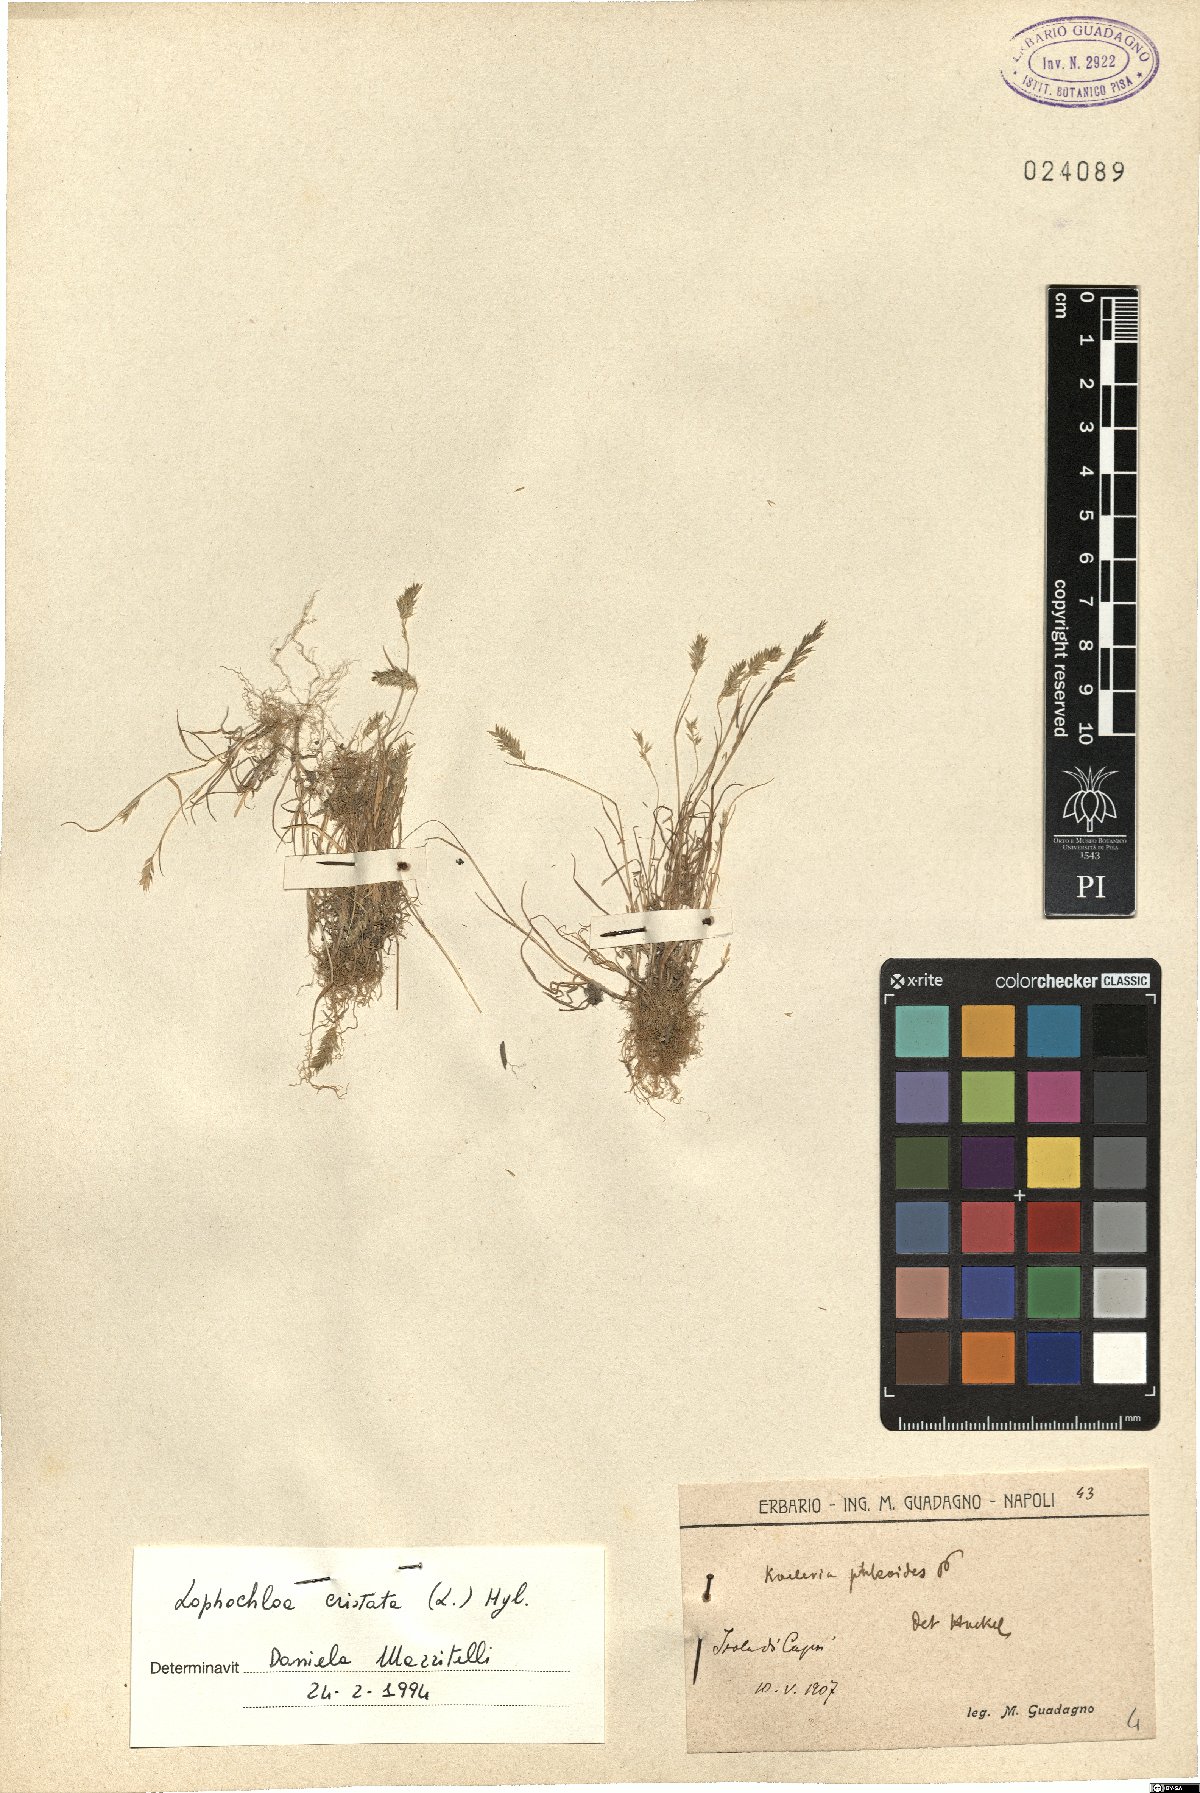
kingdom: Plantae
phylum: Tracheophyta
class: Liliopsida
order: Poales
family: Poaceae
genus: Rostraria
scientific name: Rostraria cristata
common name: Mediterranean hair-grass
